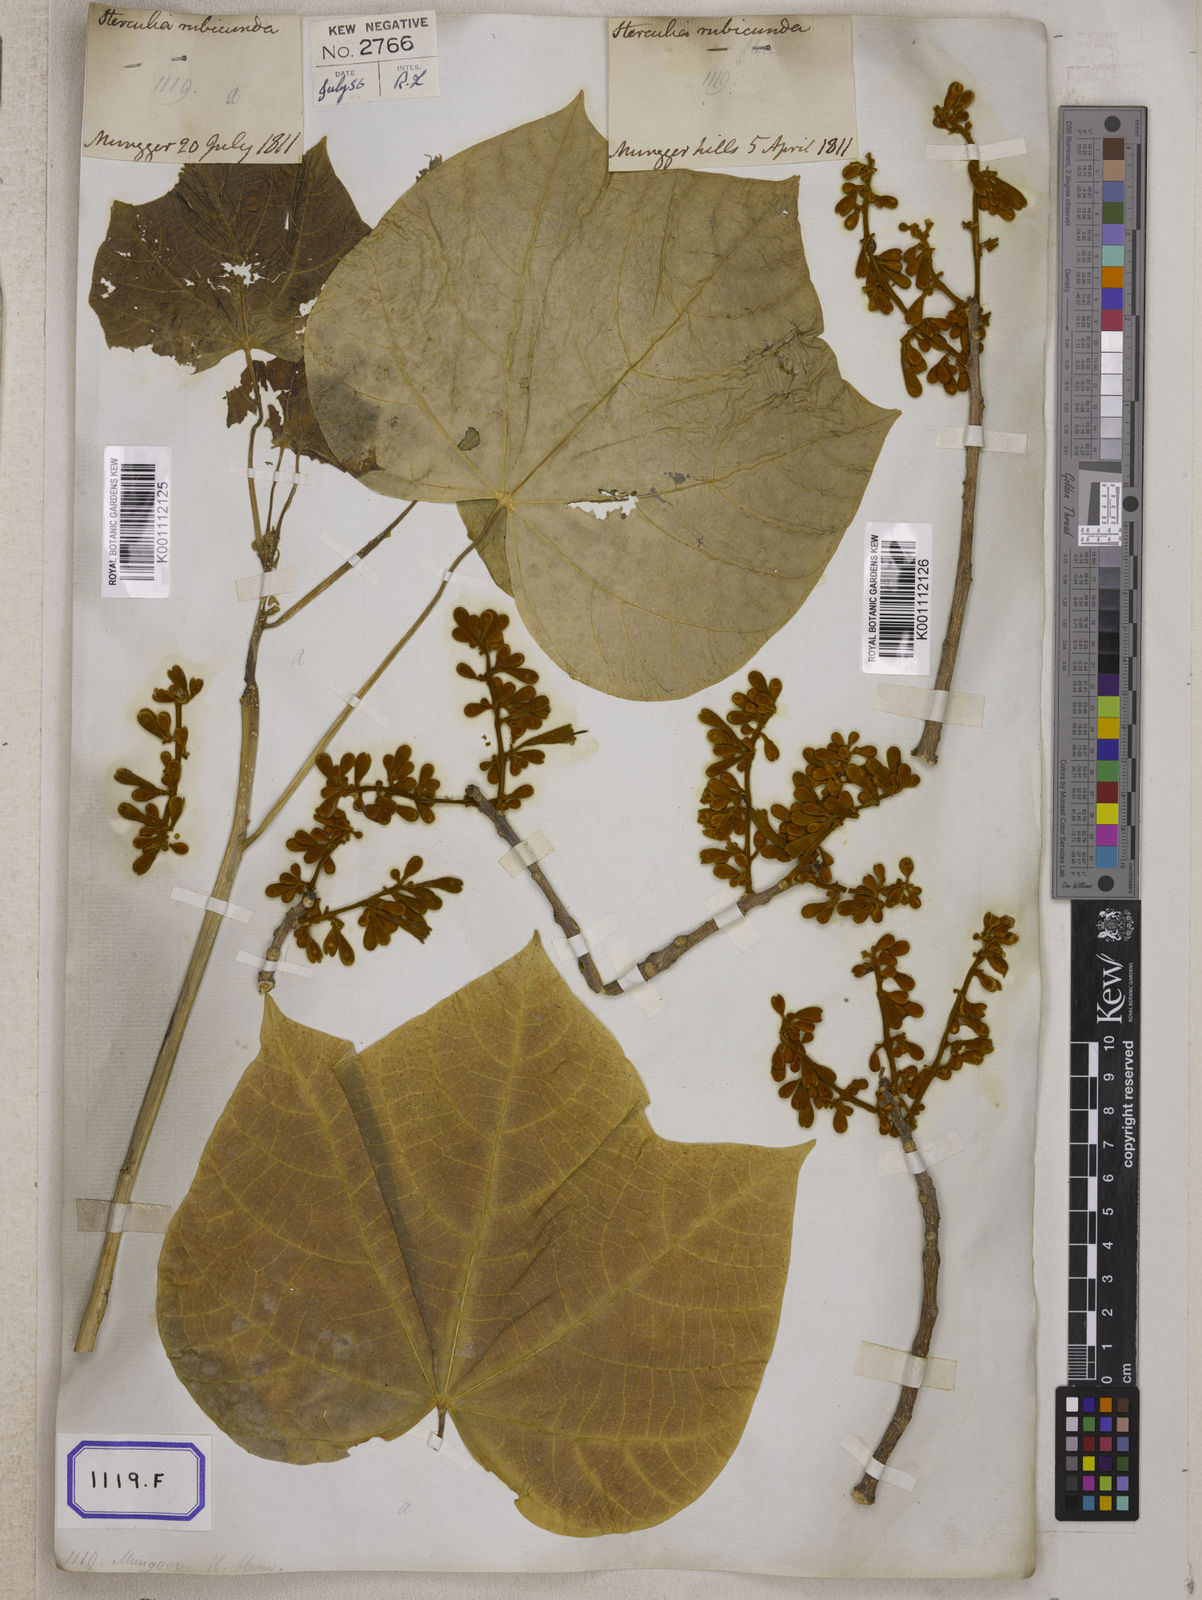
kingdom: Plantae
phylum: Tracheophyta
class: Magnoliopsida
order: Malvales
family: Malvaceae
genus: Firmiana
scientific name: Firmiana colorata
